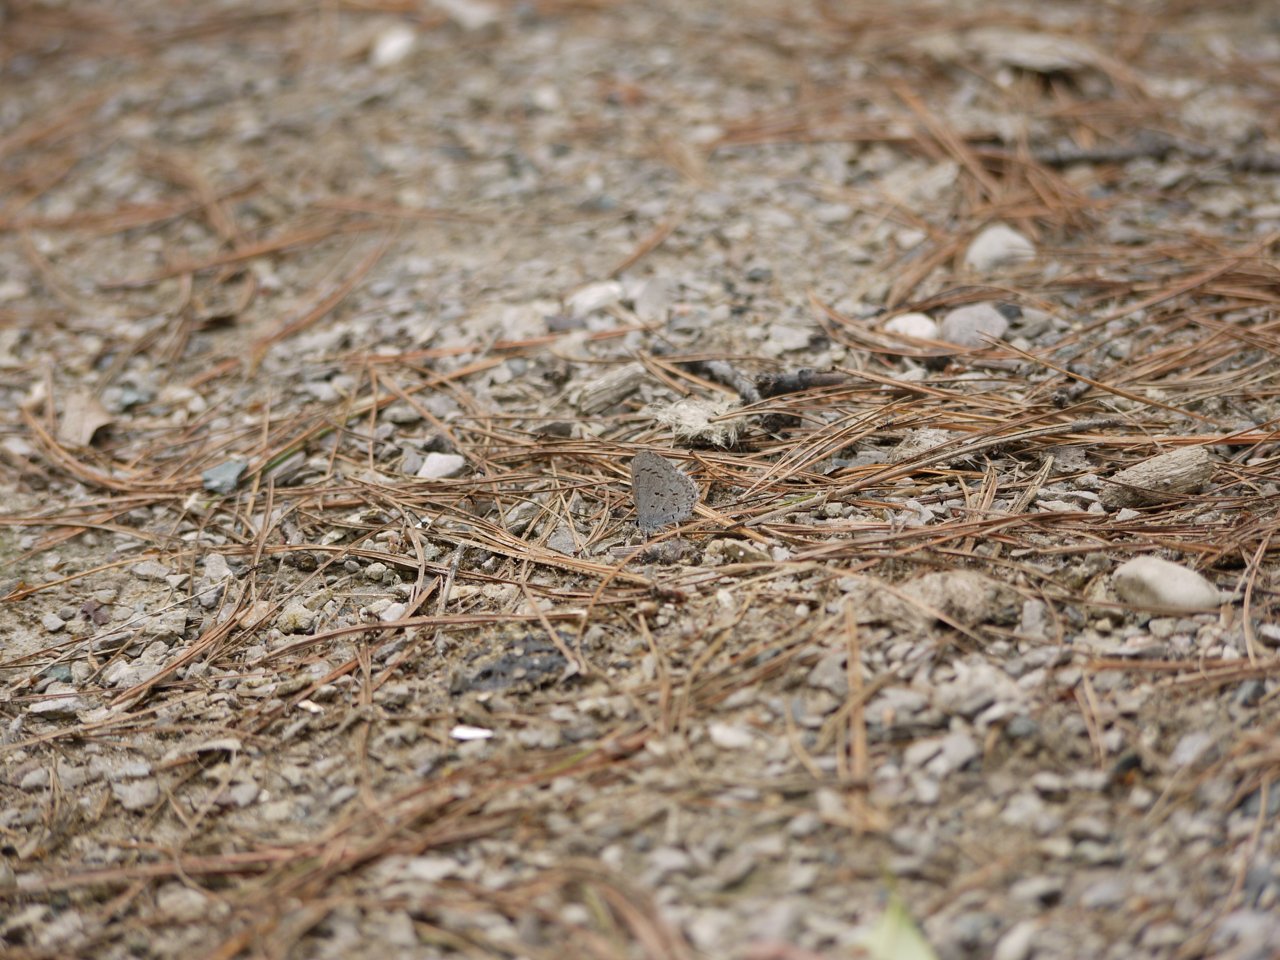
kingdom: Animalia
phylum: Arthropoda
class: Insecta
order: Lepidoptera
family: Lycaenidae
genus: Celastrina
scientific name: Celastrina
